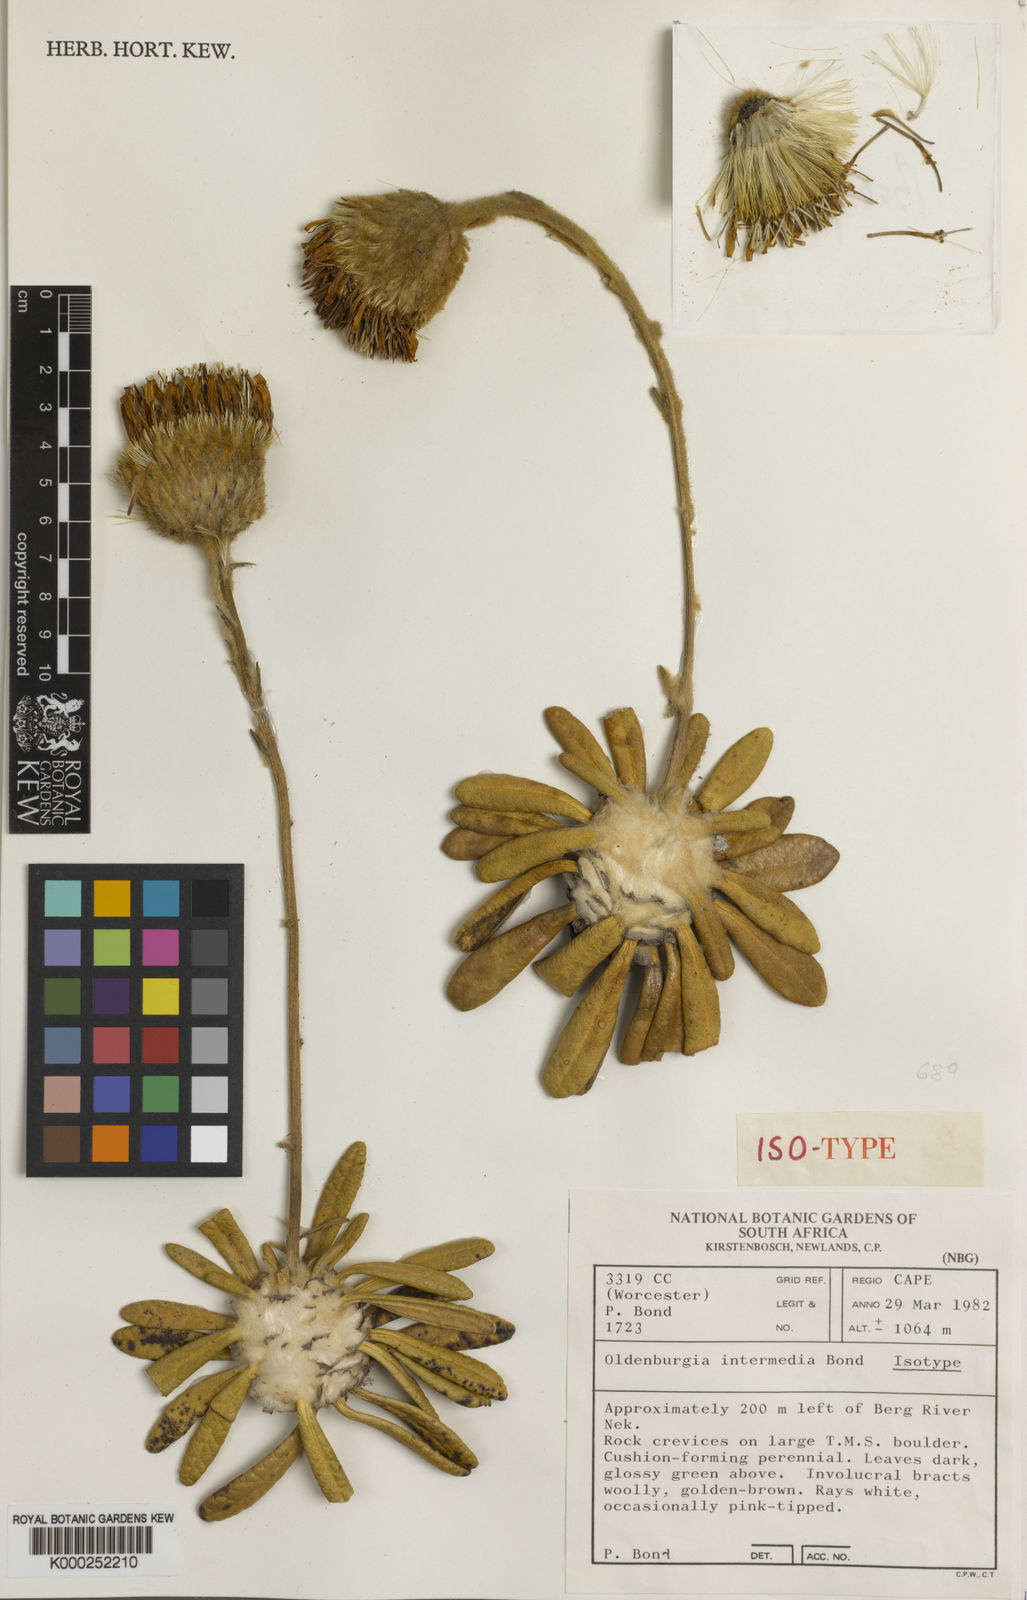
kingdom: Plantae
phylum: Tracheophyta
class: Magnoliopsida
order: Asterales
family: Asteraceae
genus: Oldenburgia
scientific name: Oldenburgia intermedia
